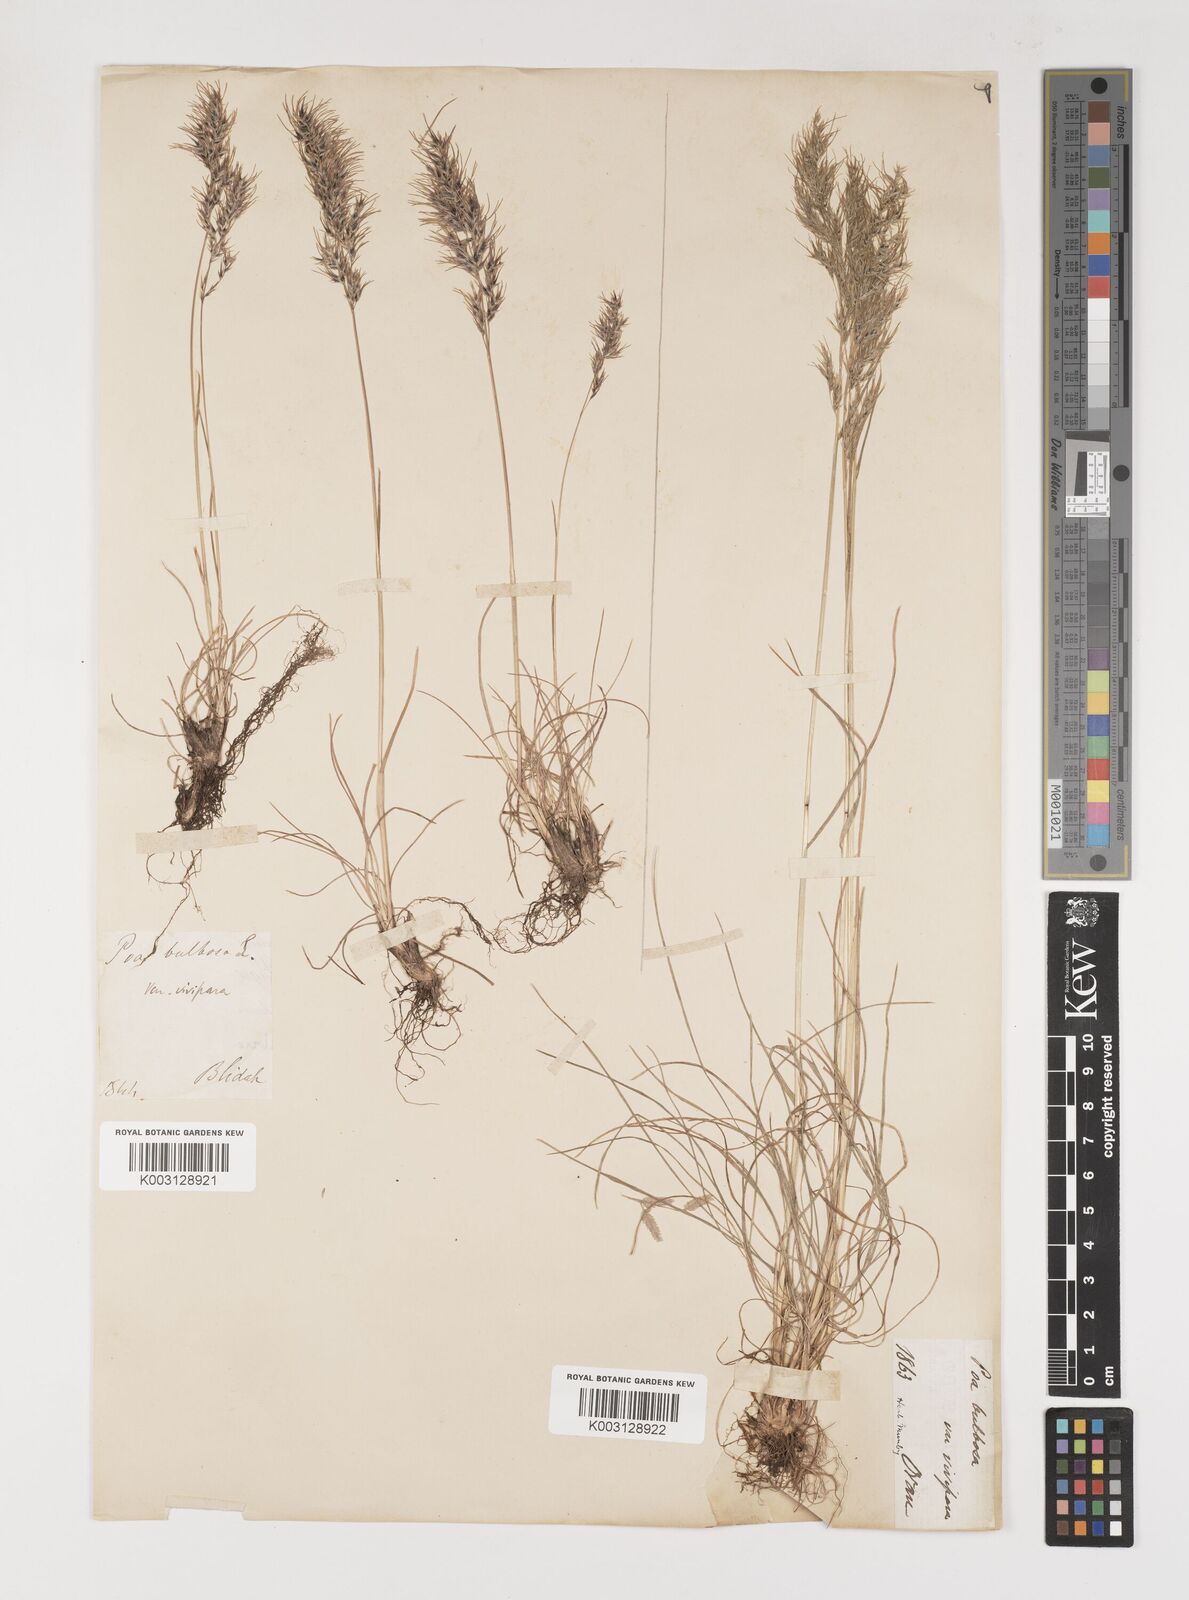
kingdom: Plantae
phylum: Tracheophyta
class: Liliopsida
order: Poales
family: Poaceae
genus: Poa
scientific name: Poa bulbosa
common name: Bulbous bluegrass
